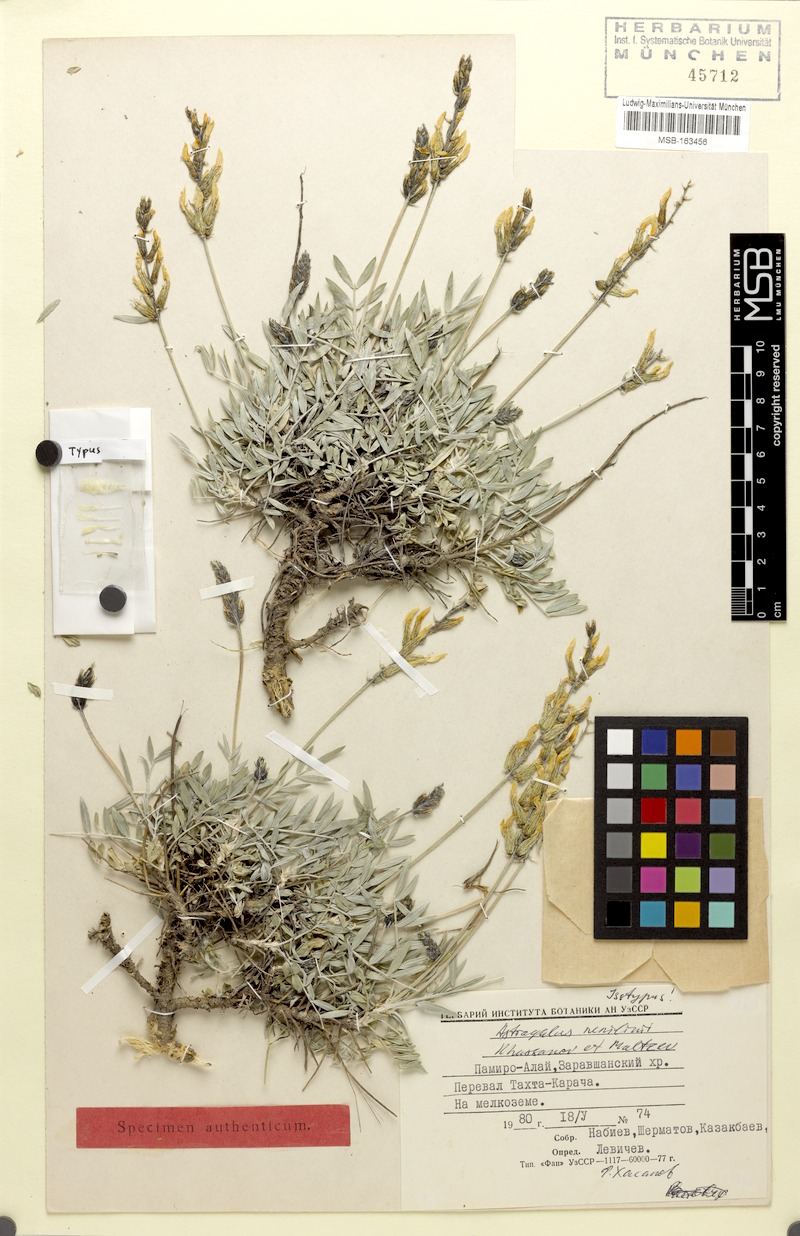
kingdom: Plantae
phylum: Tracheophyta
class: Magnoliopsida
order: Fabales
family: Fabaceae
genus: Astragalus
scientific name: Astragalus nenilinii
